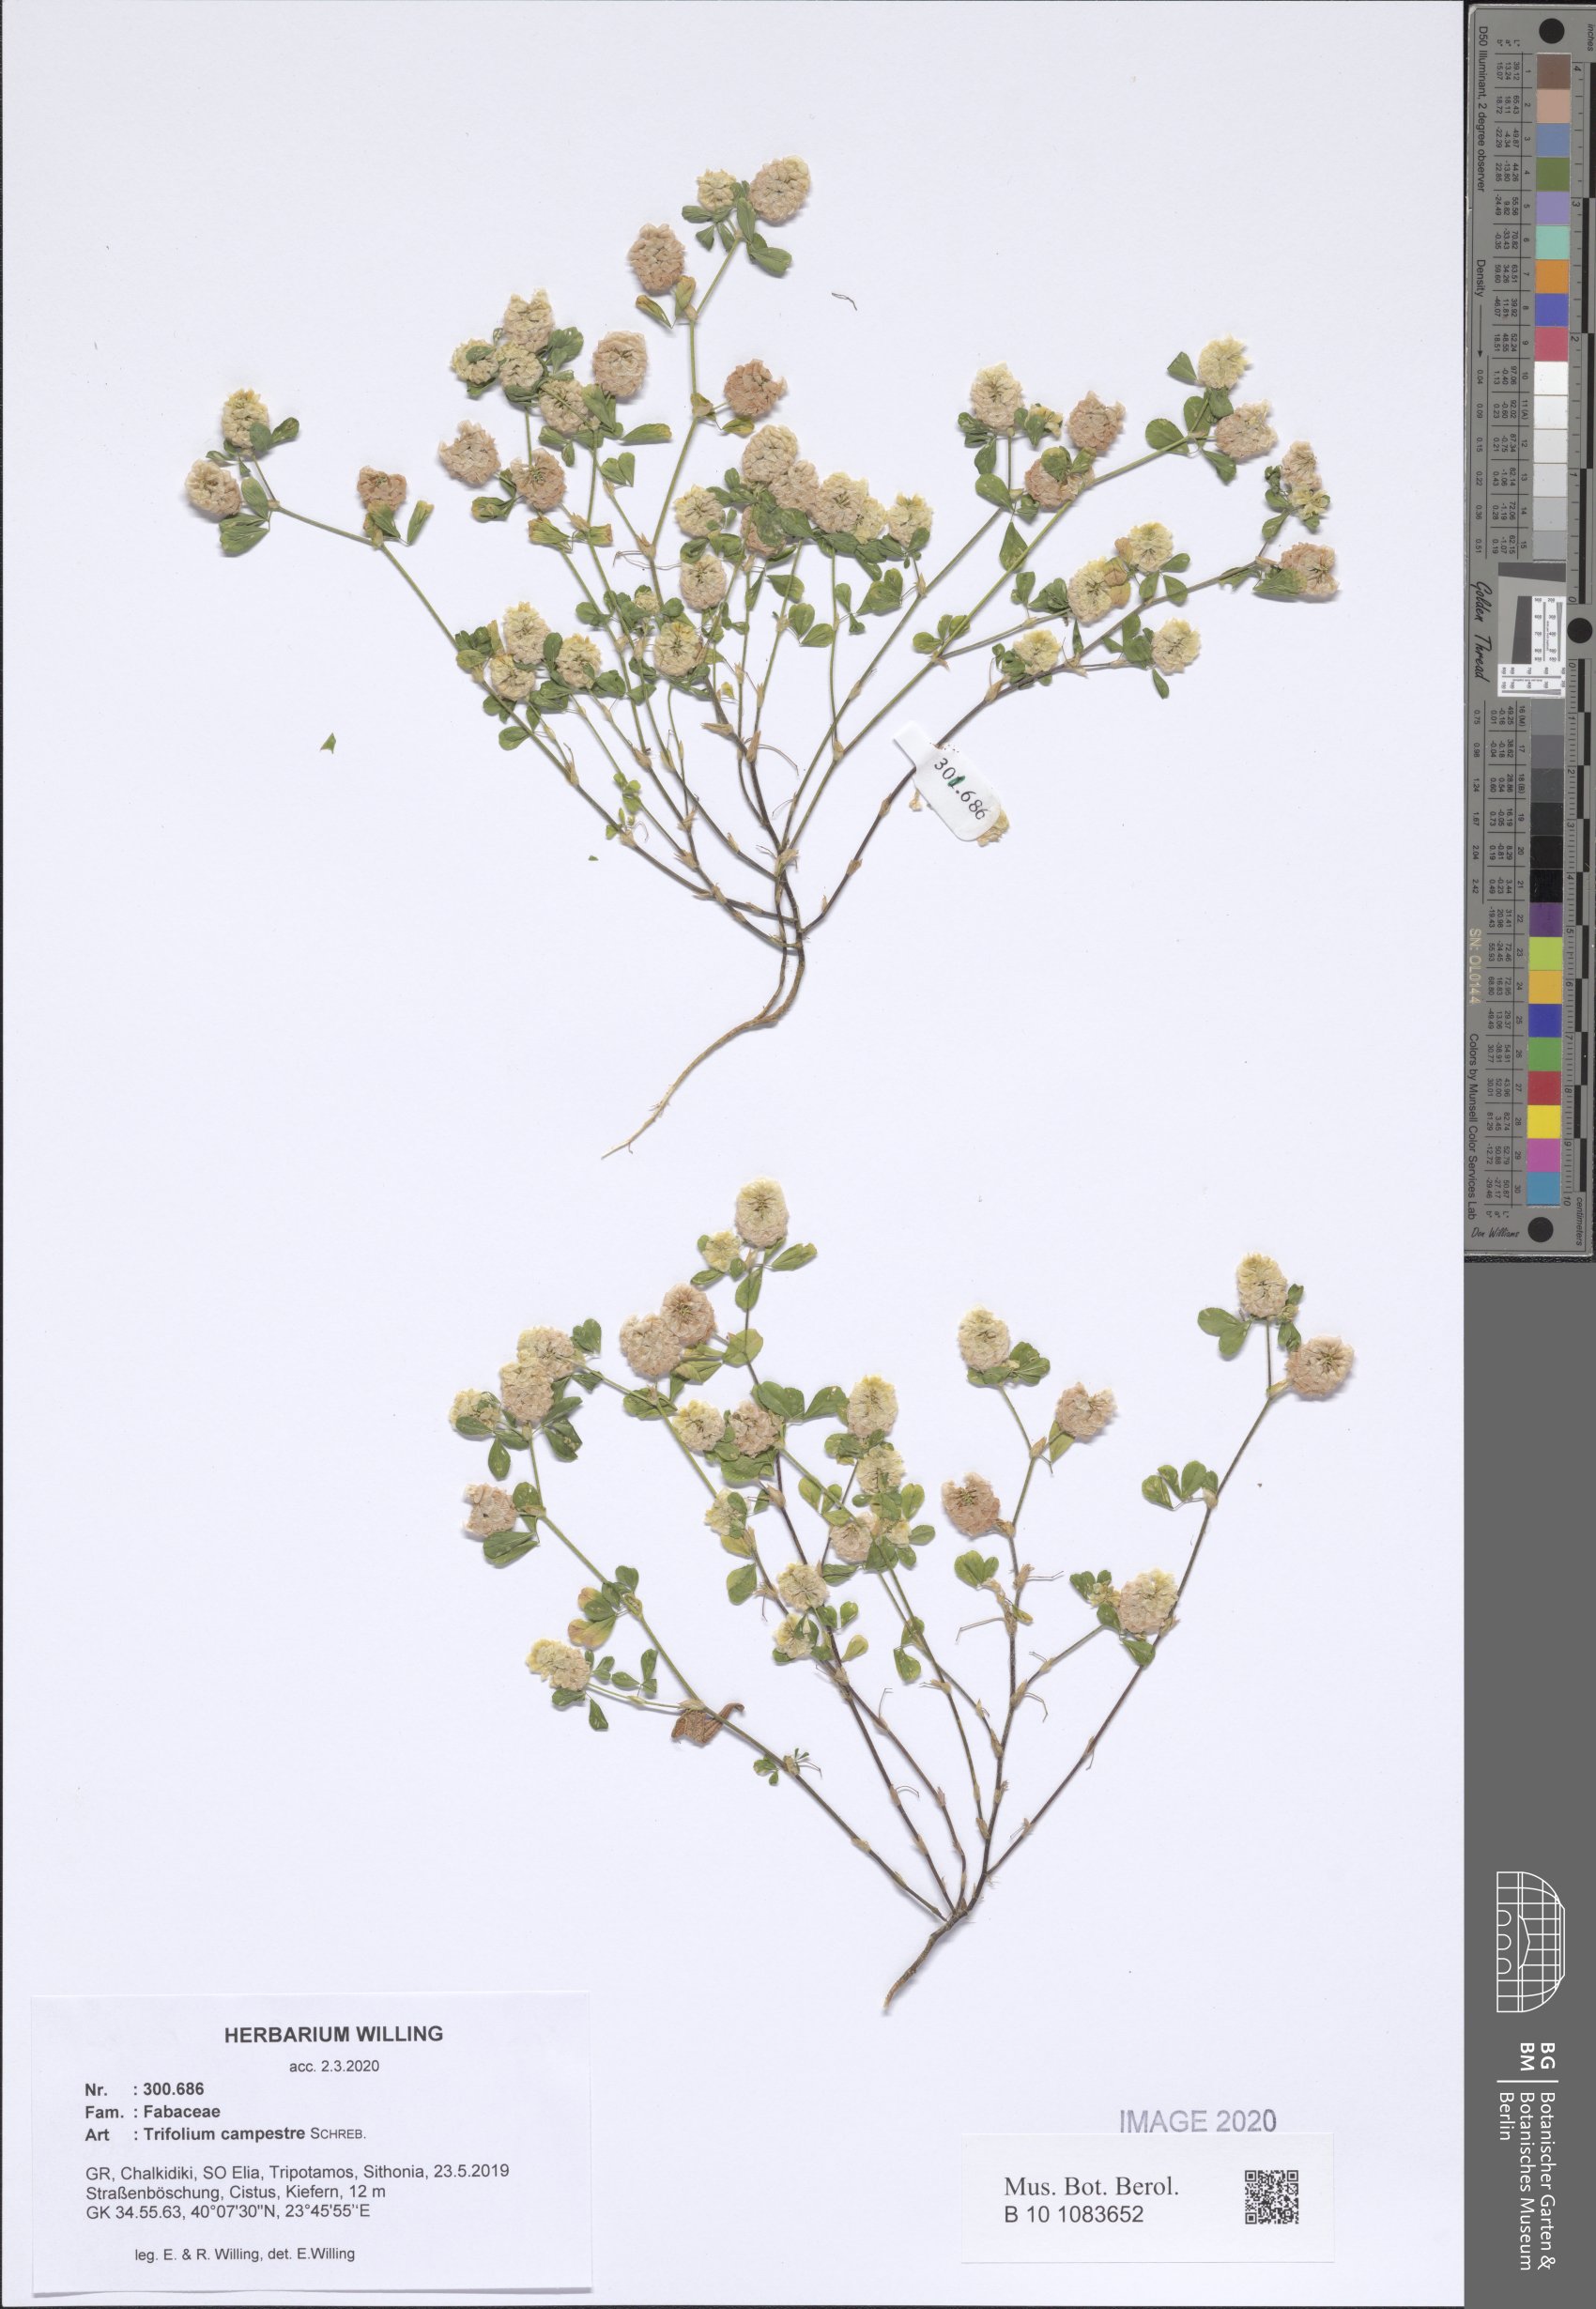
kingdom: Plantae
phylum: Tracheophyta
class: Magnoliopsida
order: Fabales
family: Fabaceae
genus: Trifolium
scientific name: Trifolium campestre
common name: Field clover
